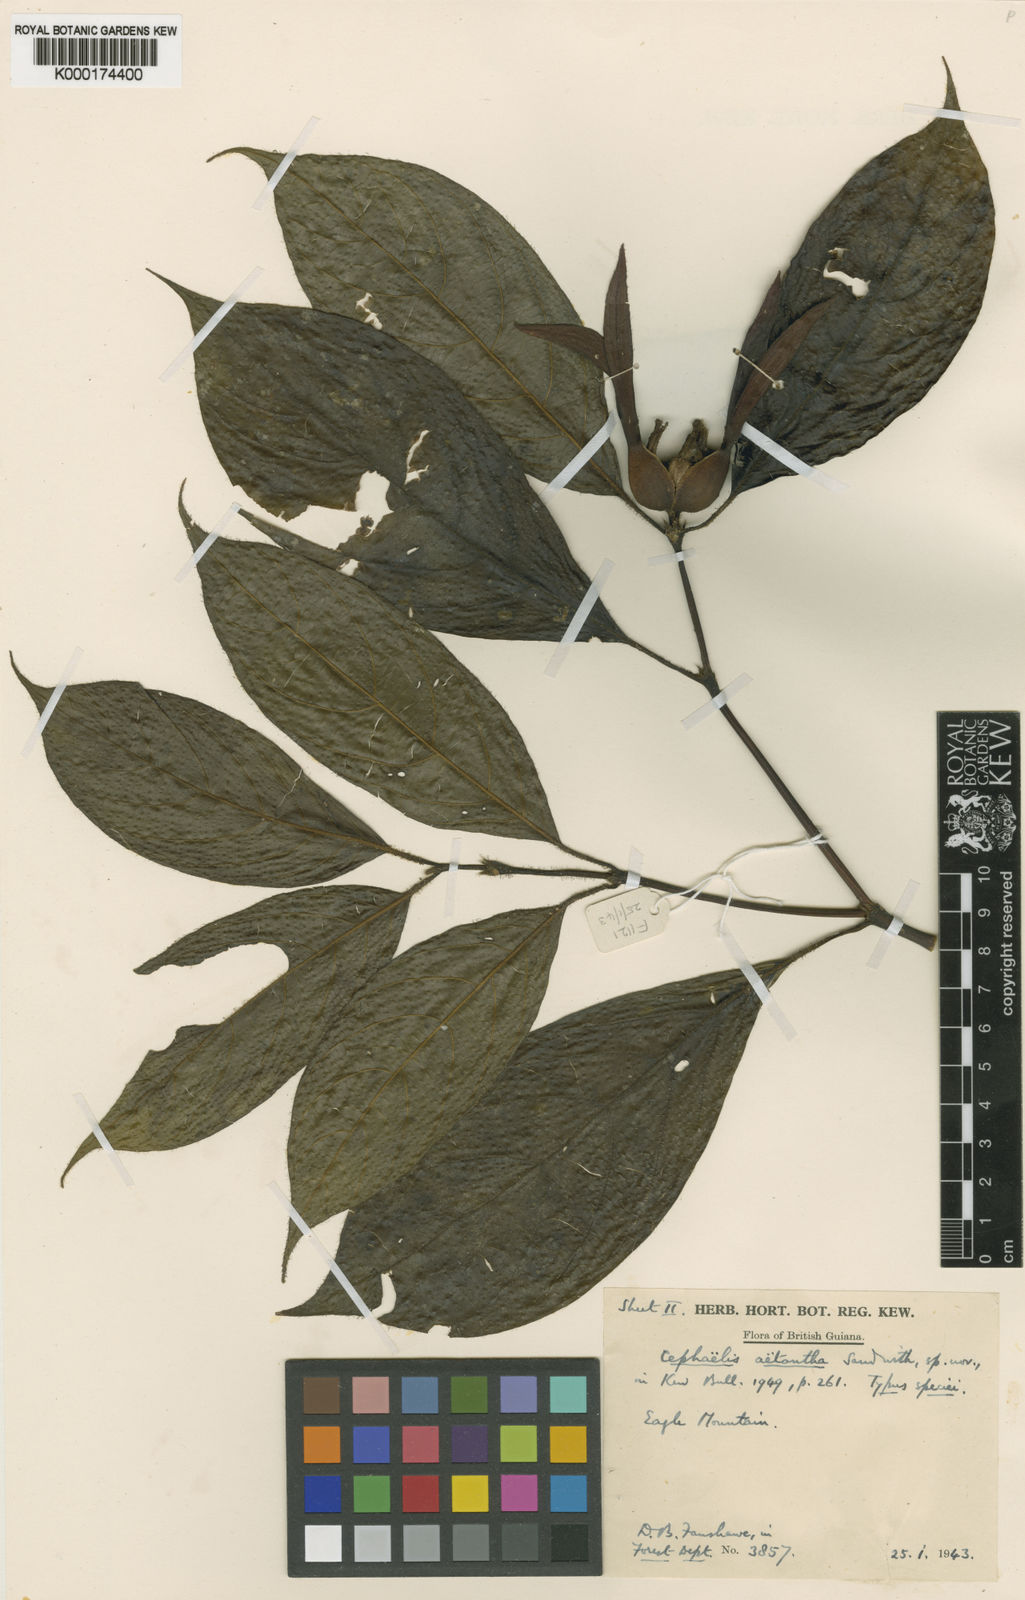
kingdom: Plantae
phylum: Tracheophyta
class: Magnoliopsida
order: Gentianales
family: Rubiaceae
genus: Palicourea
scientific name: Palicourea aetantha
